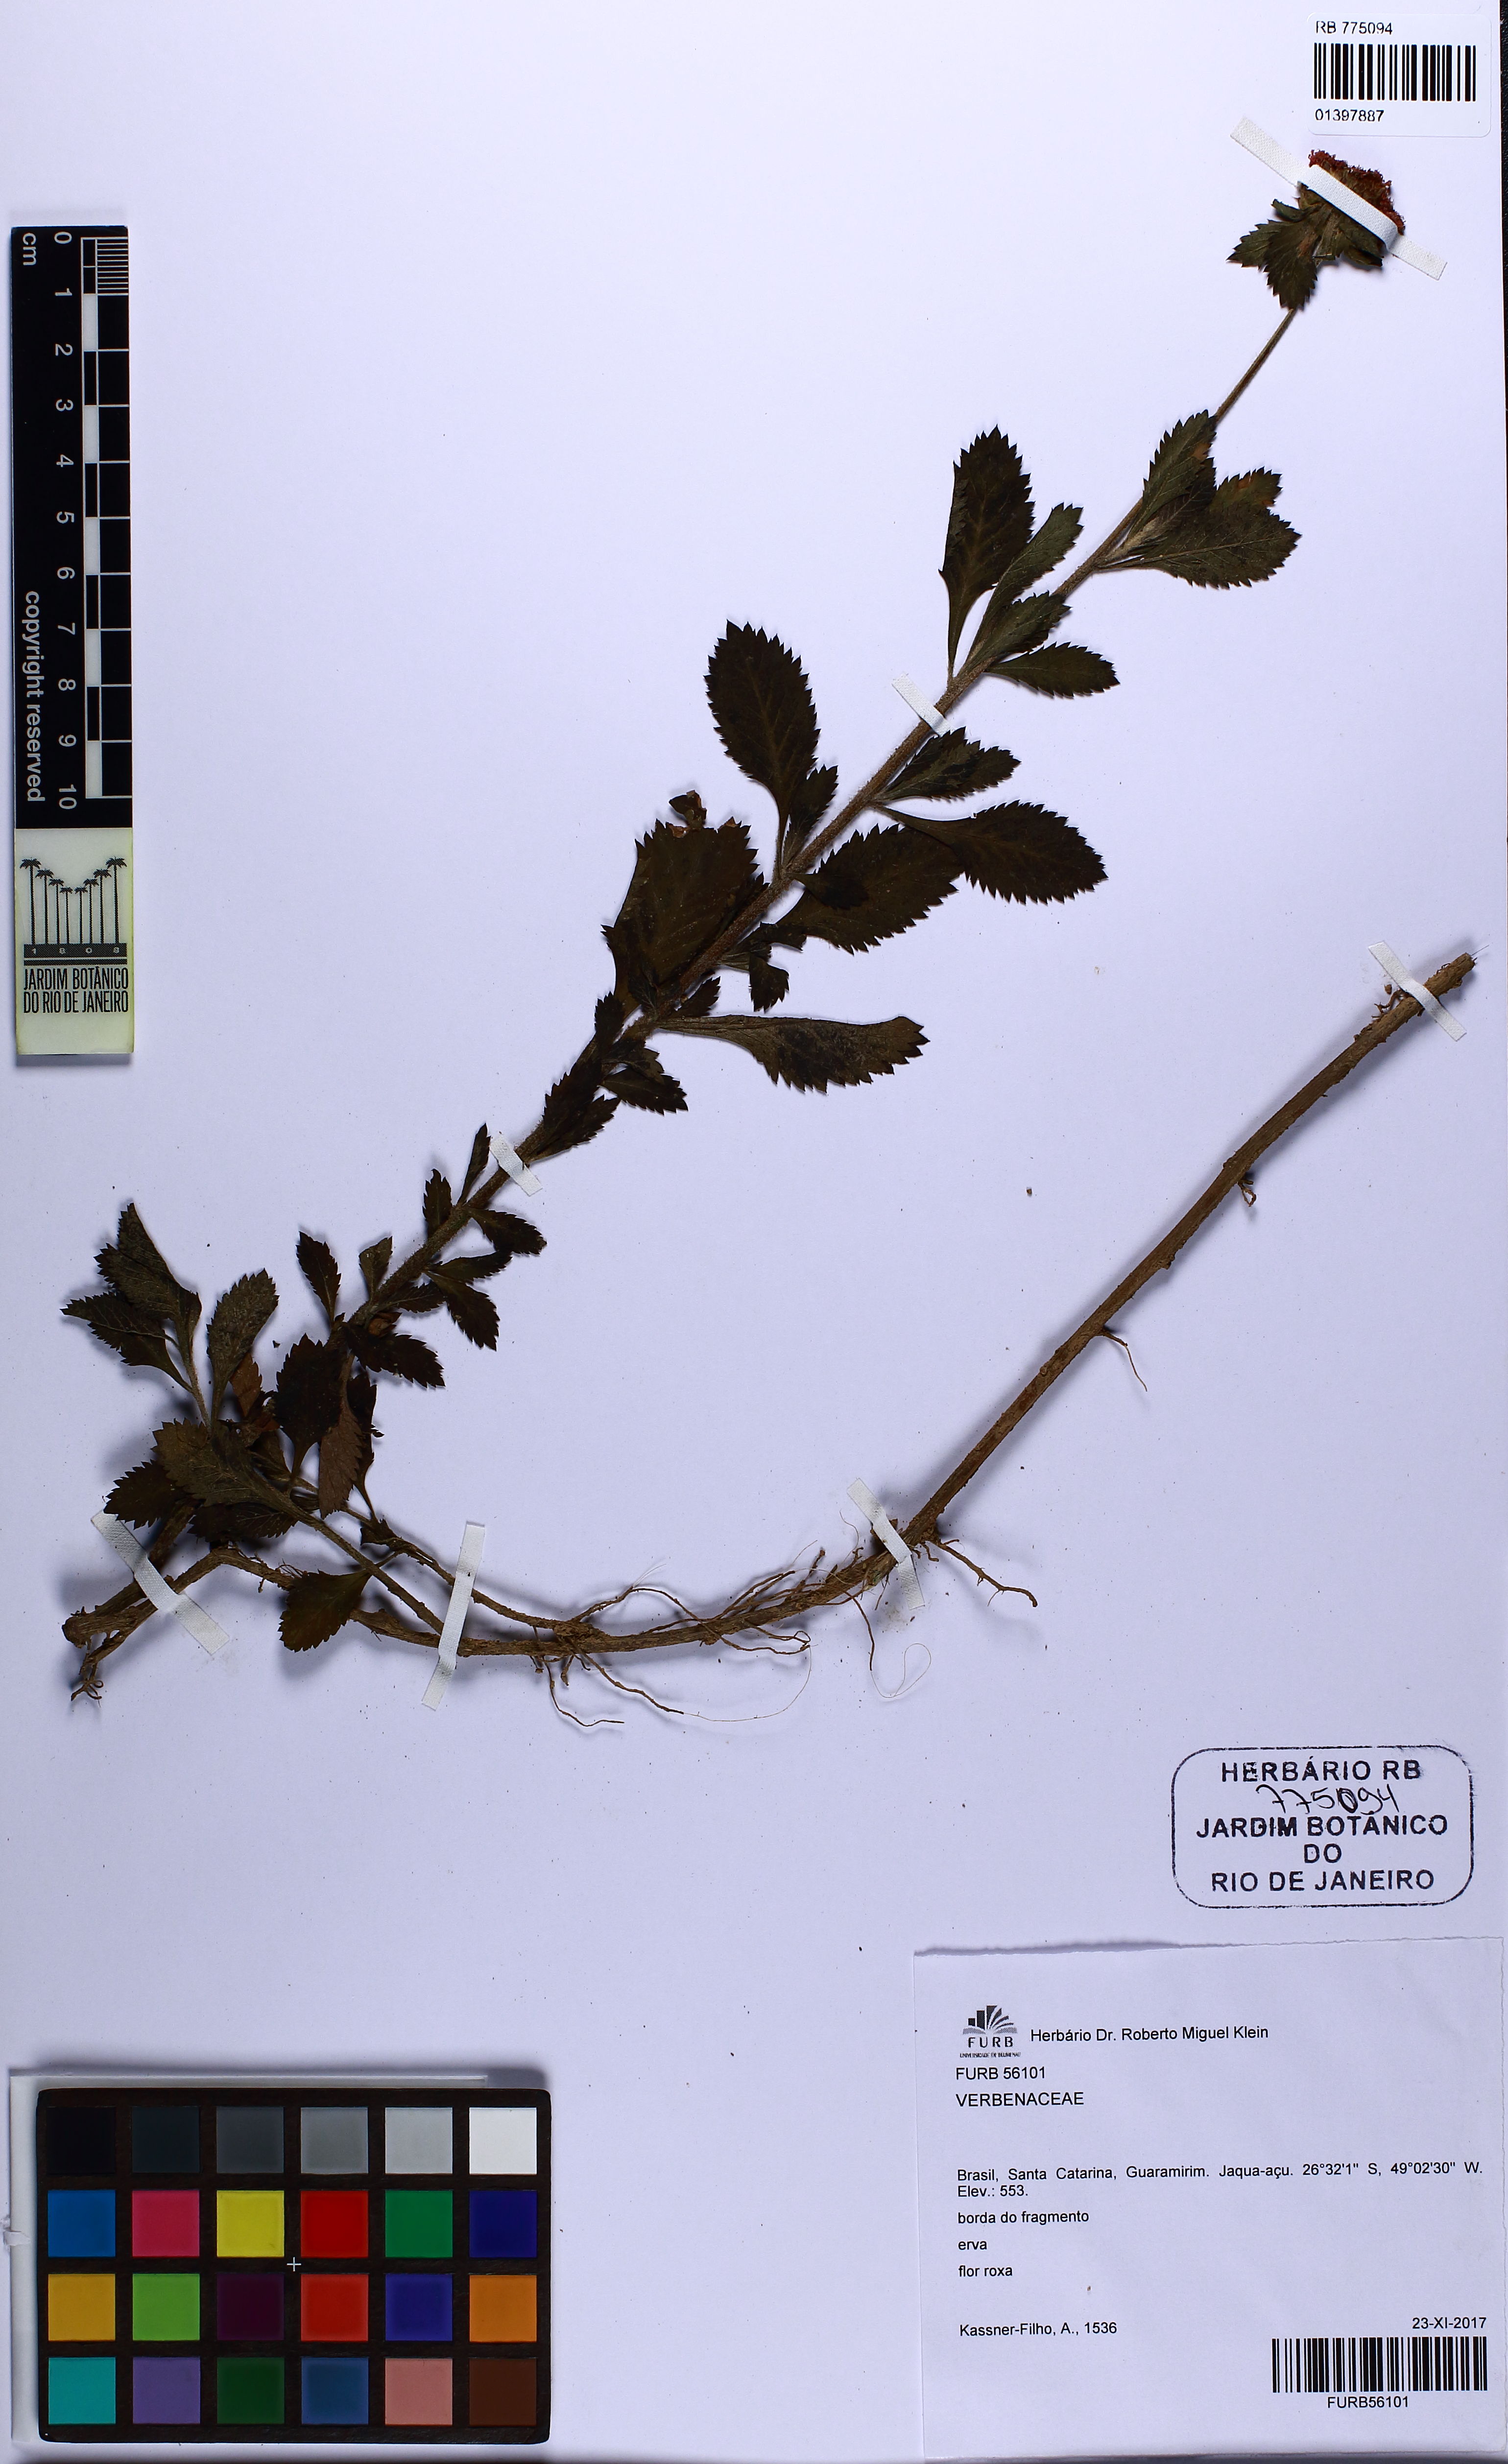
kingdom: Plantae
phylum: Tracheophyta
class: Magnoliopsida
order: Asterales
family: Asteraceae
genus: Centratherum
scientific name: Centratherum punctatum
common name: Larkdaisy
